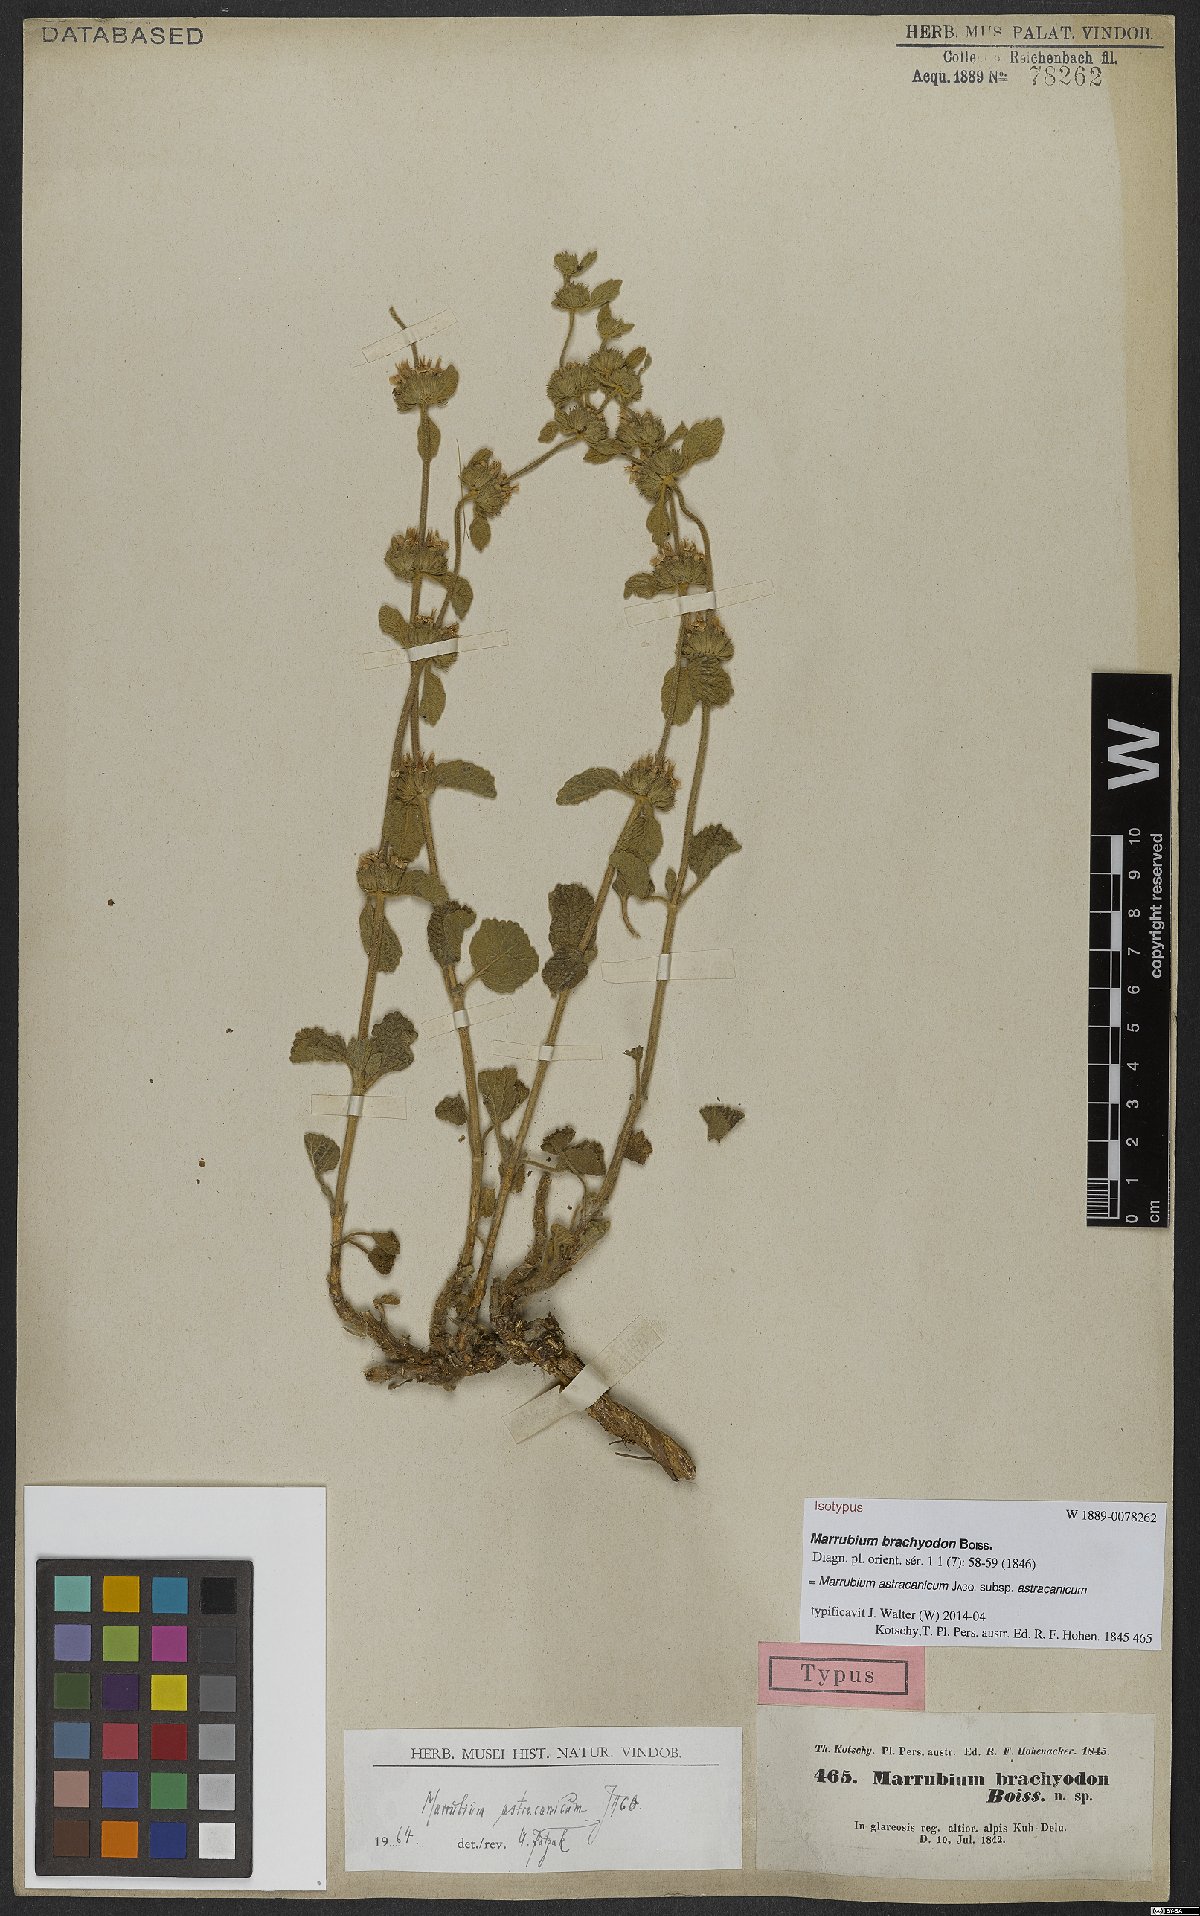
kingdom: Plantae
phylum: Tracheophyta
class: Magnoliopsida
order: Lamiales
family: Lamiaceae
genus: Marrubium
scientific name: Marrubium astracanicum
